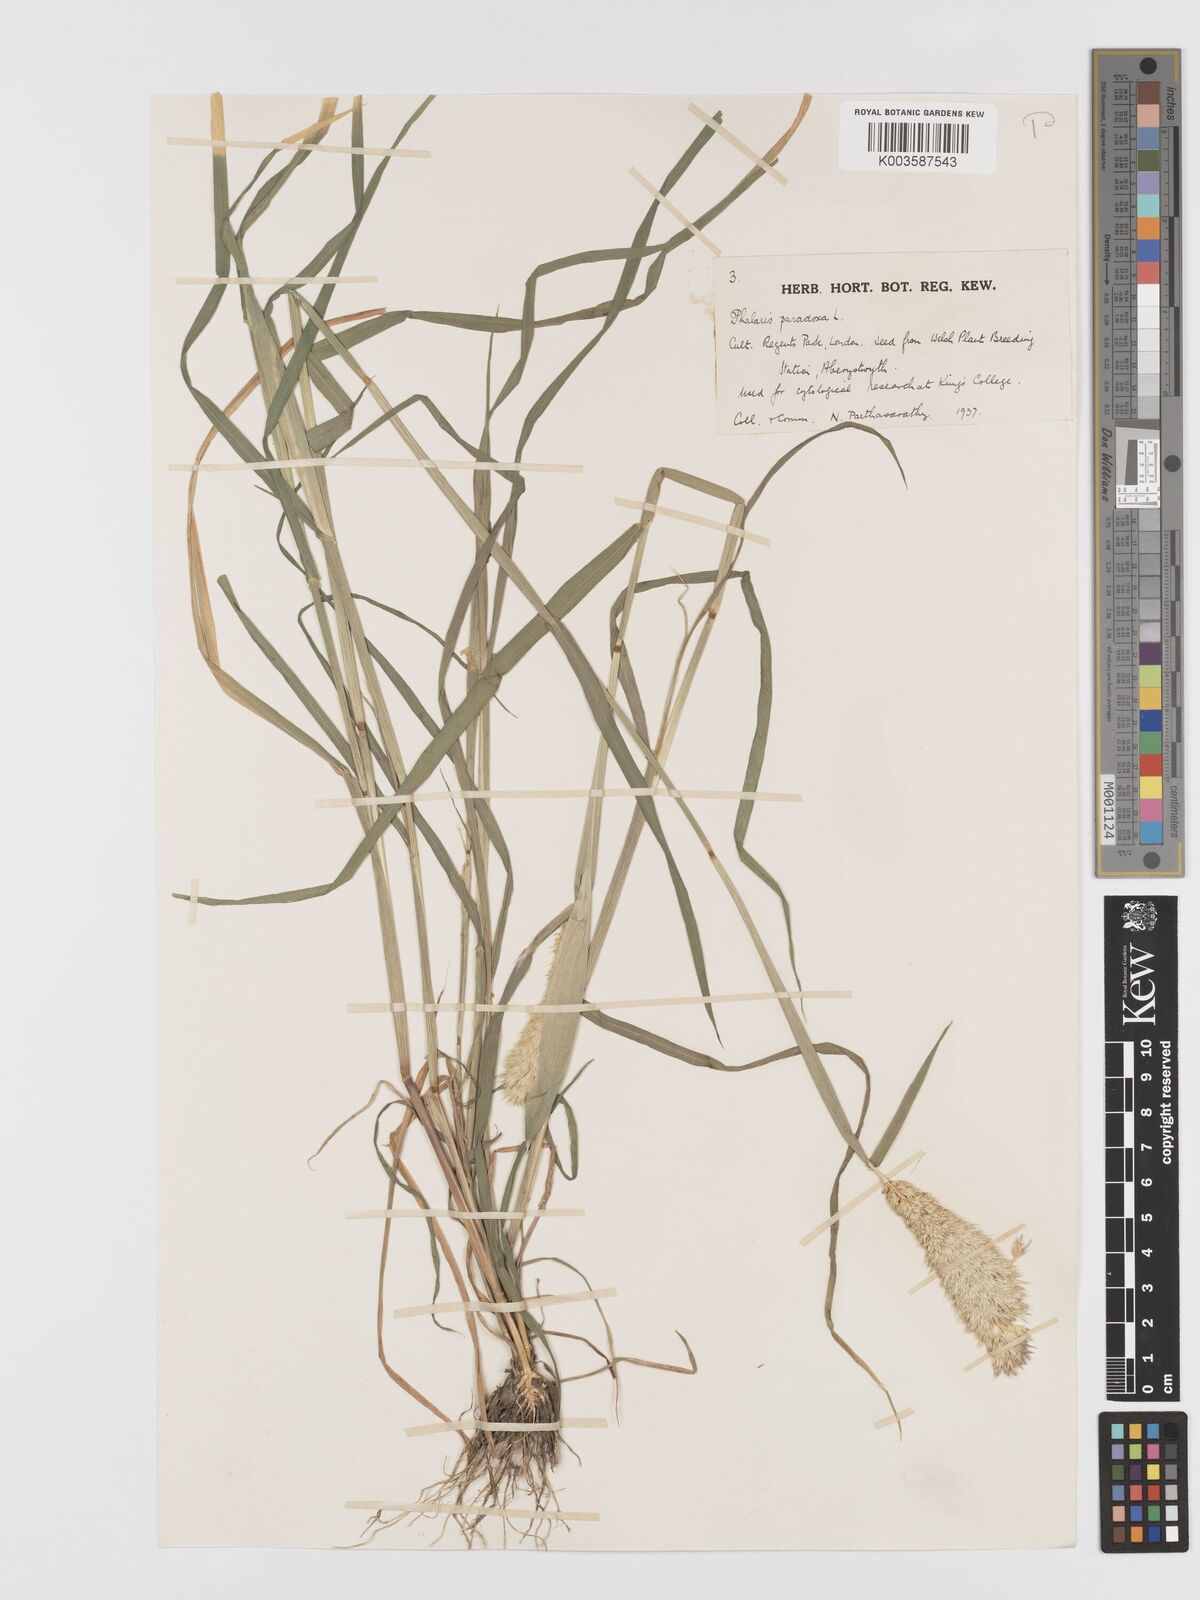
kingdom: Plantae
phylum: Tracheophyta
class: Liliopsida
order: Poales
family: Poaceae
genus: Phalaris
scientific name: Phalaris paradoxa
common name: Awned canary-grass
